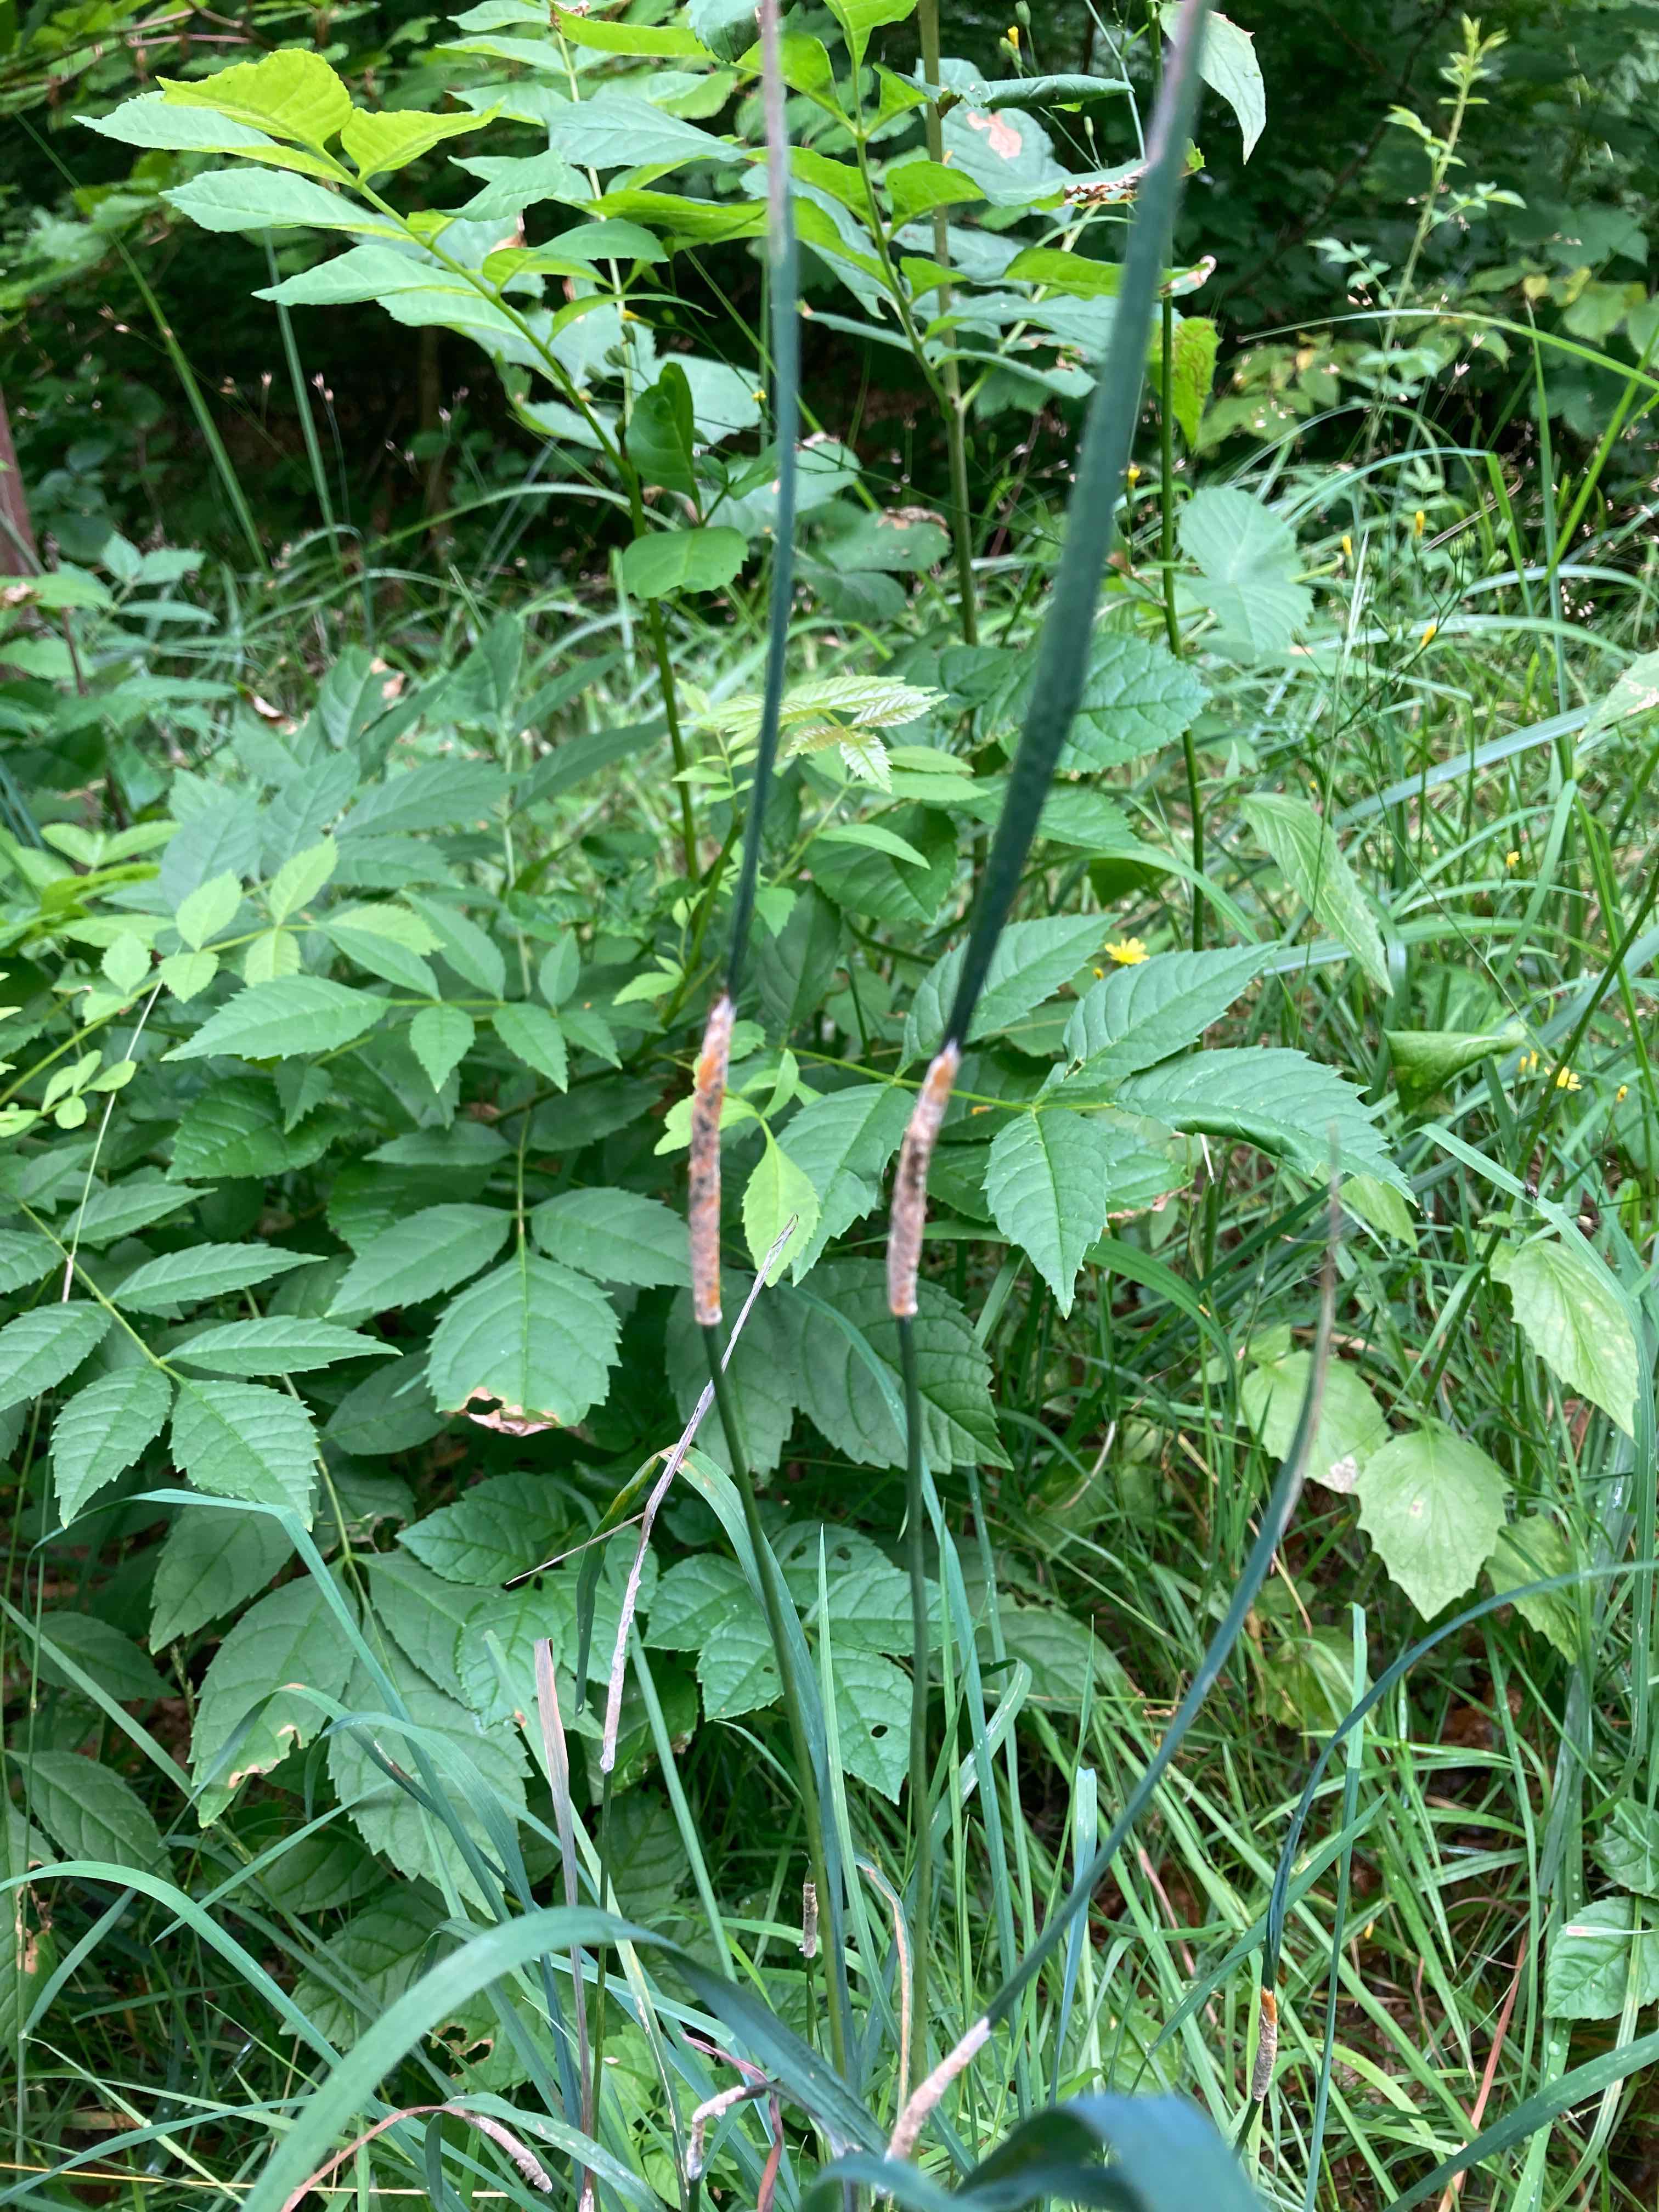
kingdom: Fungi
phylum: Ascomycota
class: Sordariomycetes
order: Hypocreales
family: Clavicipitaceae
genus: Epichloe
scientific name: Epichloe typhina
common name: almindelig kernerør
